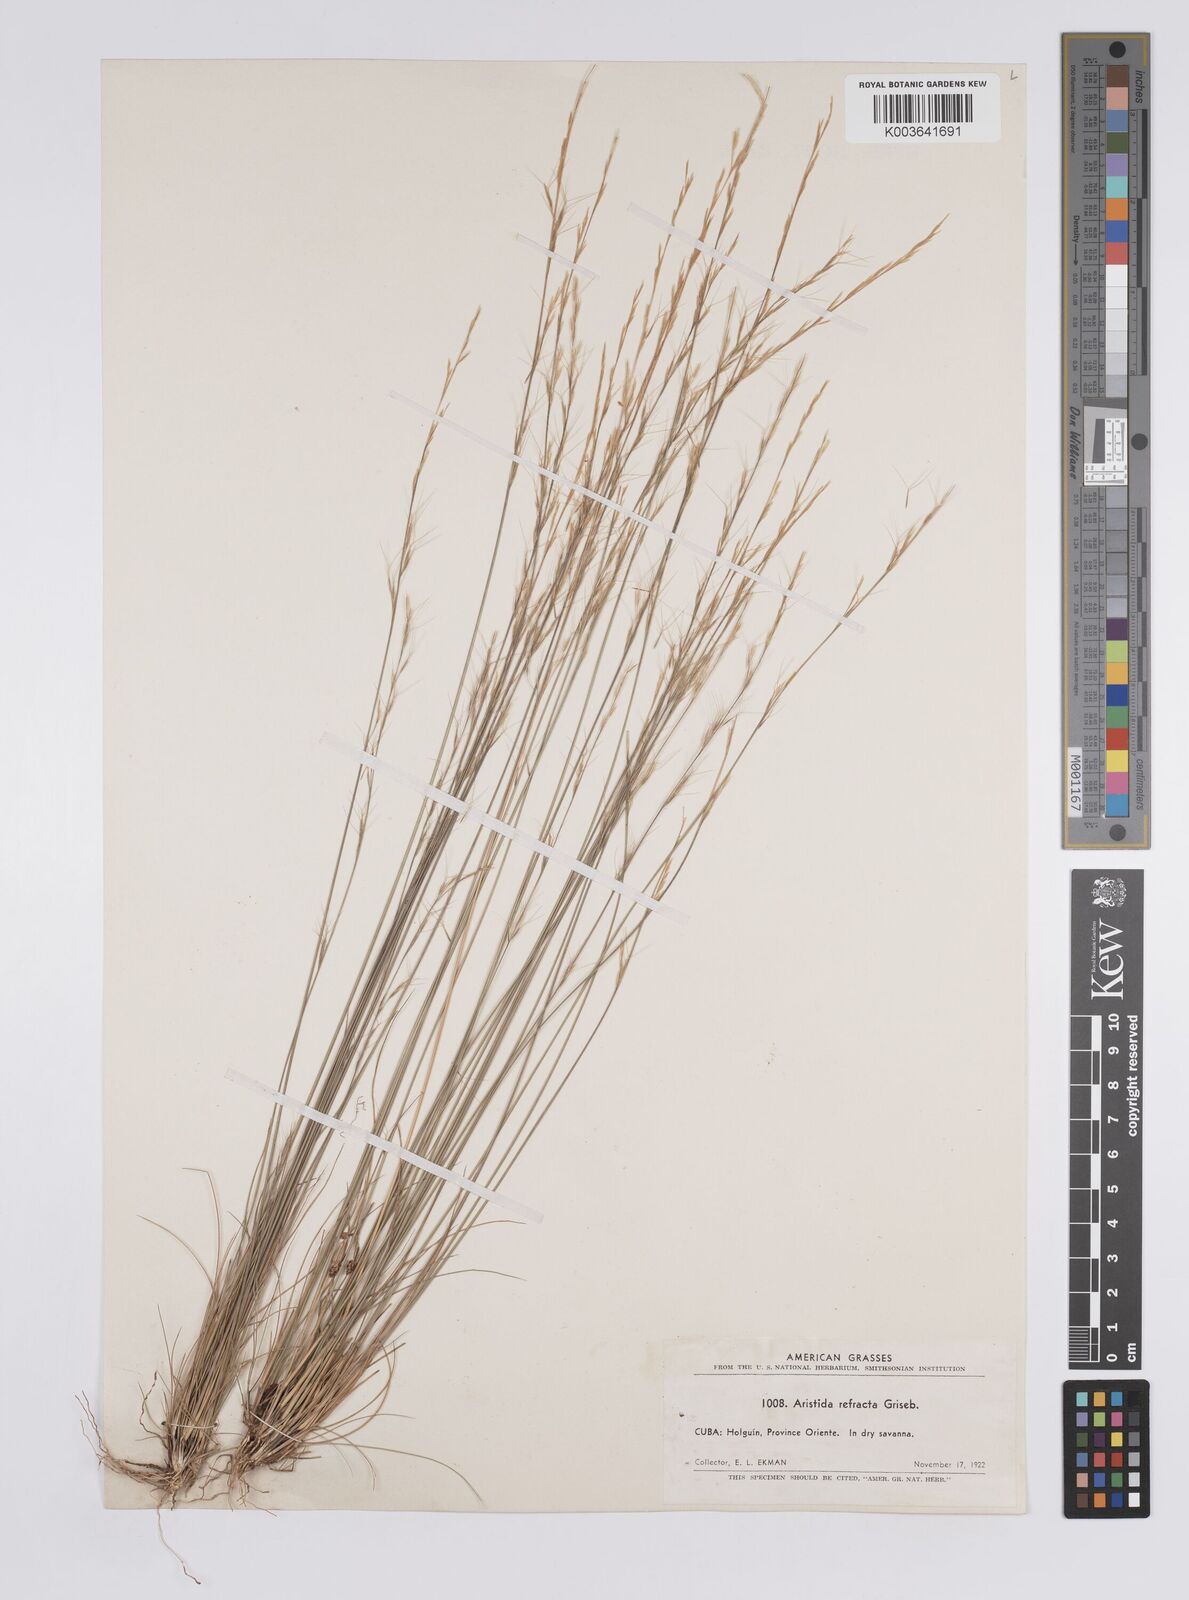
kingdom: Plantae
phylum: Tracheophyta
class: Liliopsida
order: Poales
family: Poaceae
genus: Aristida
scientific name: Aristida refracta
